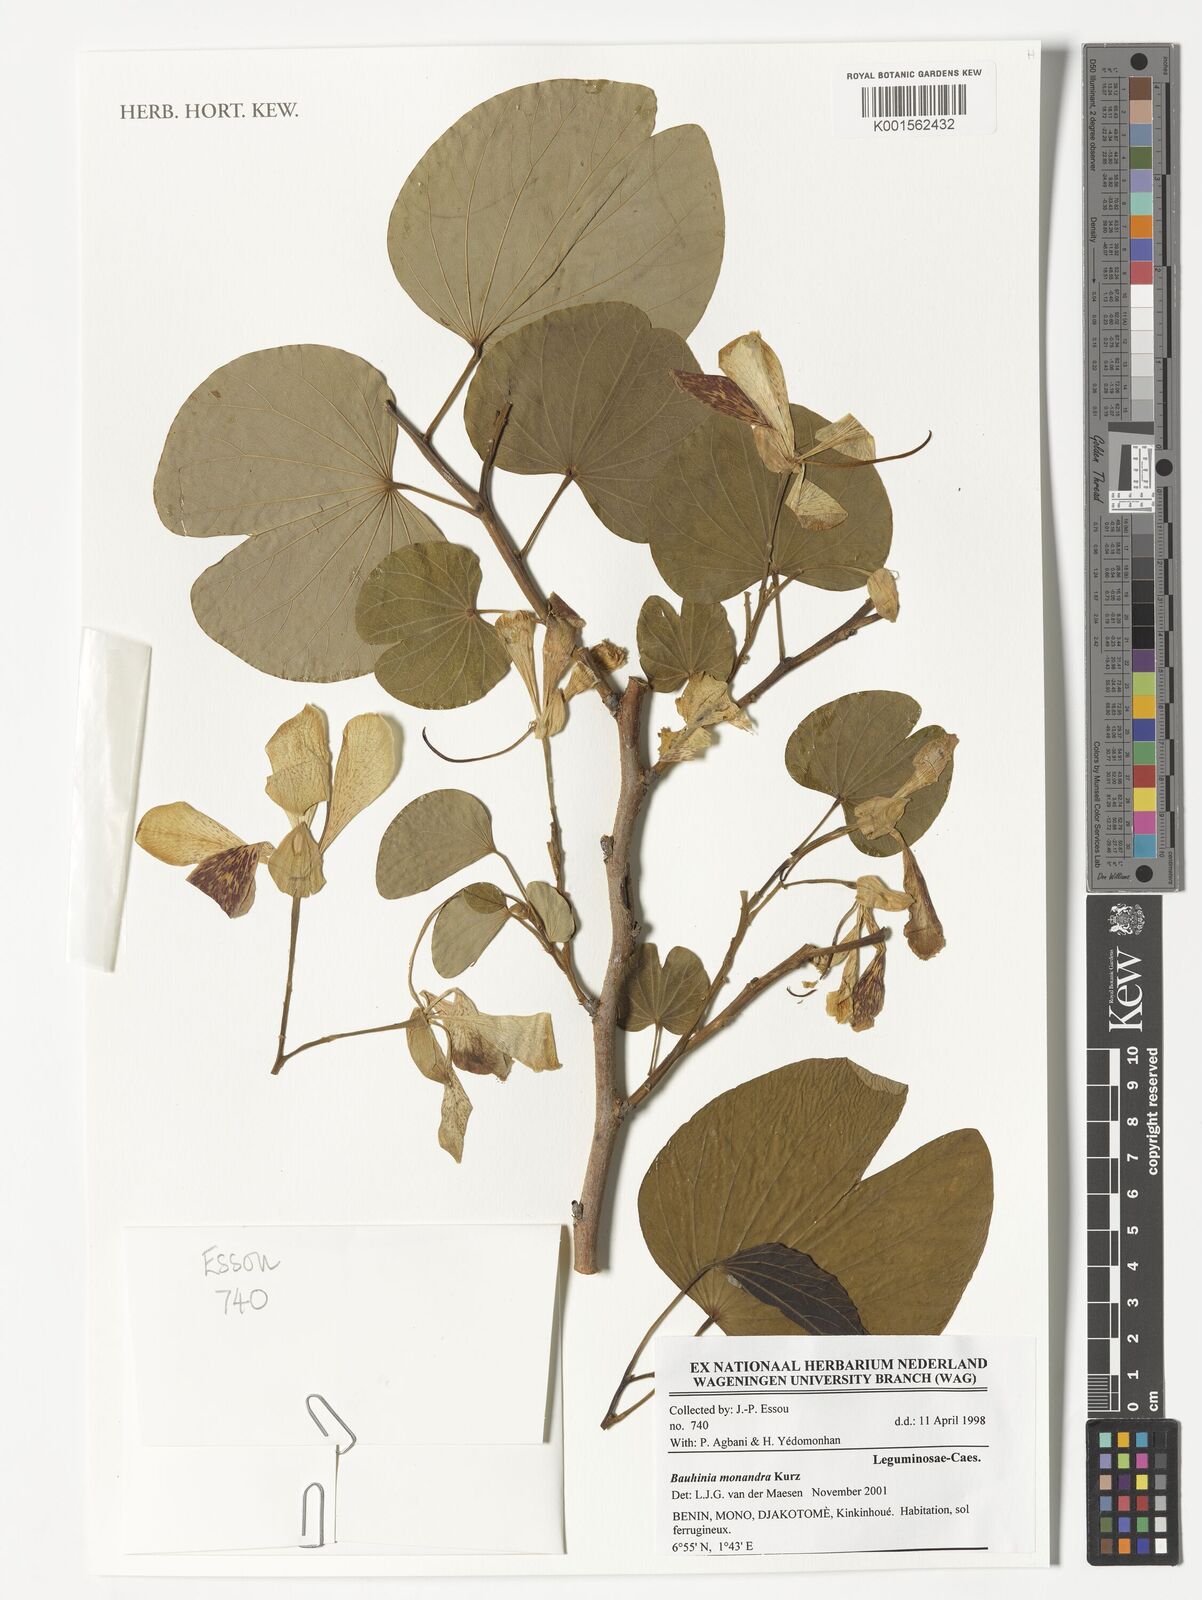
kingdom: Plantae
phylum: Tracheophyta
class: Magnoliopsida
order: Fabales
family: Fabaceae
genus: Bauhinia
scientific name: Bauhinia monandra
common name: Napoleon's plume
